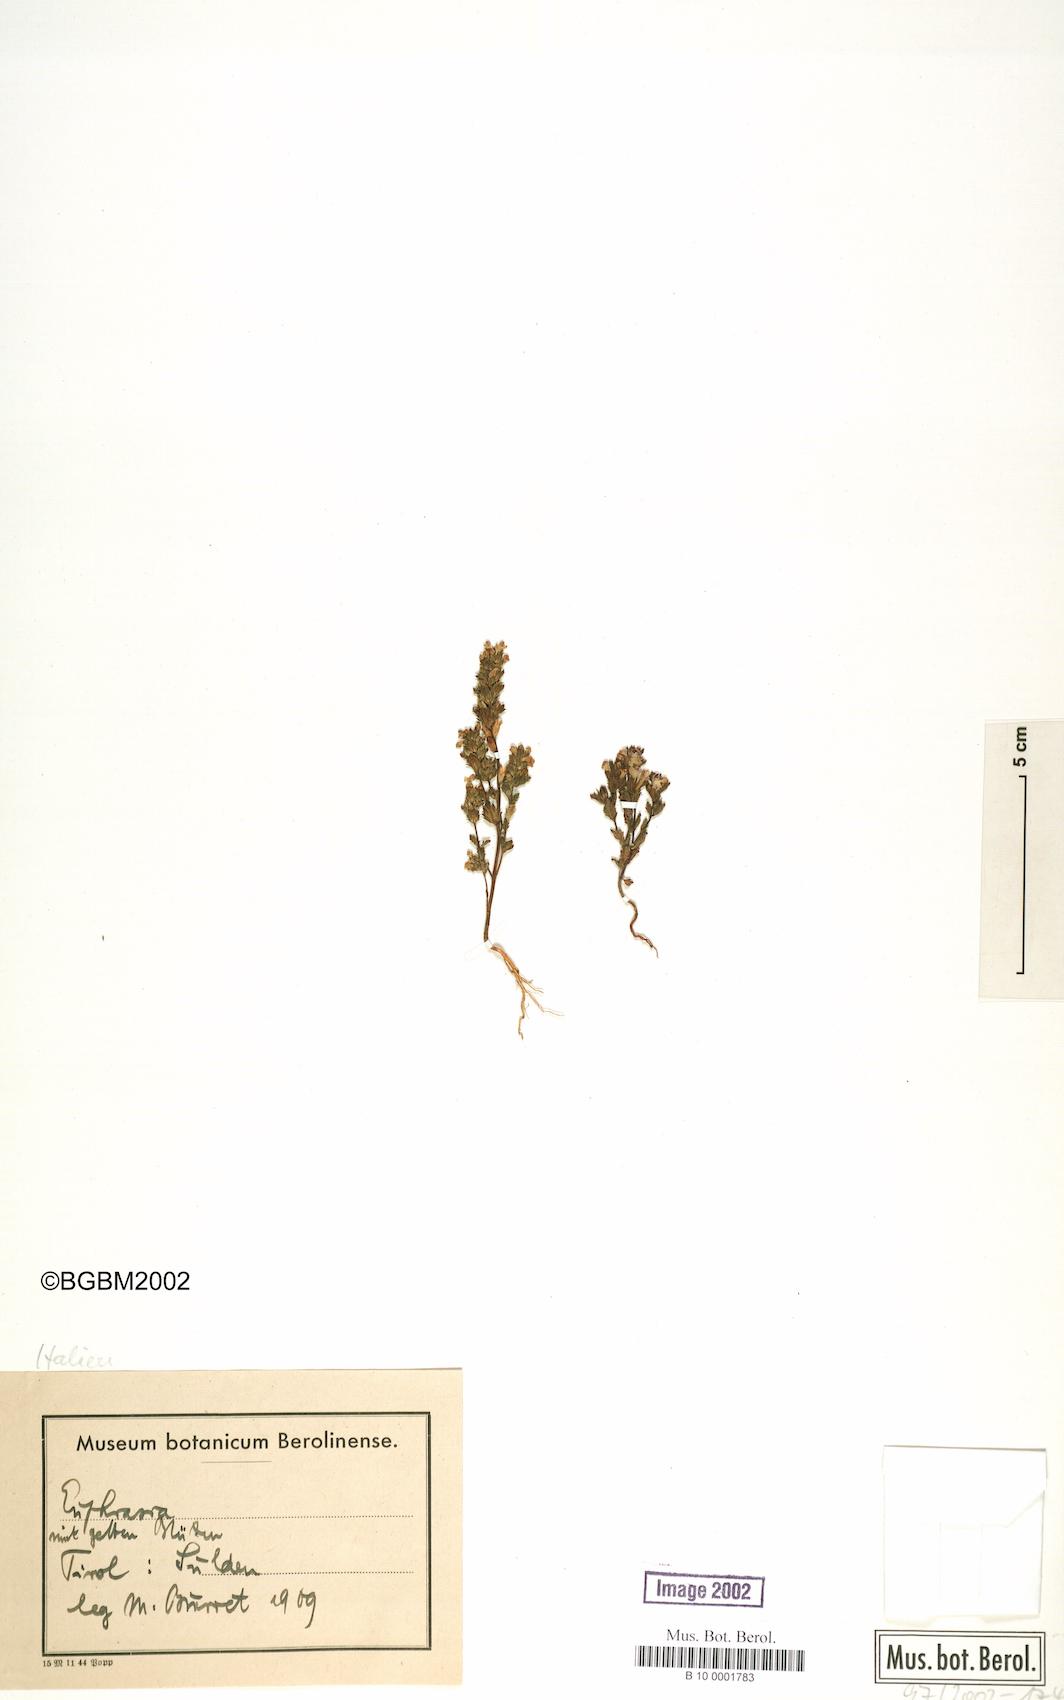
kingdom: Plantae
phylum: Tracheophyta
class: Magnoliopsida
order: Lamiales
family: Orobanchaceae
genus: Euphrasia
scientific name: Euphrasia
